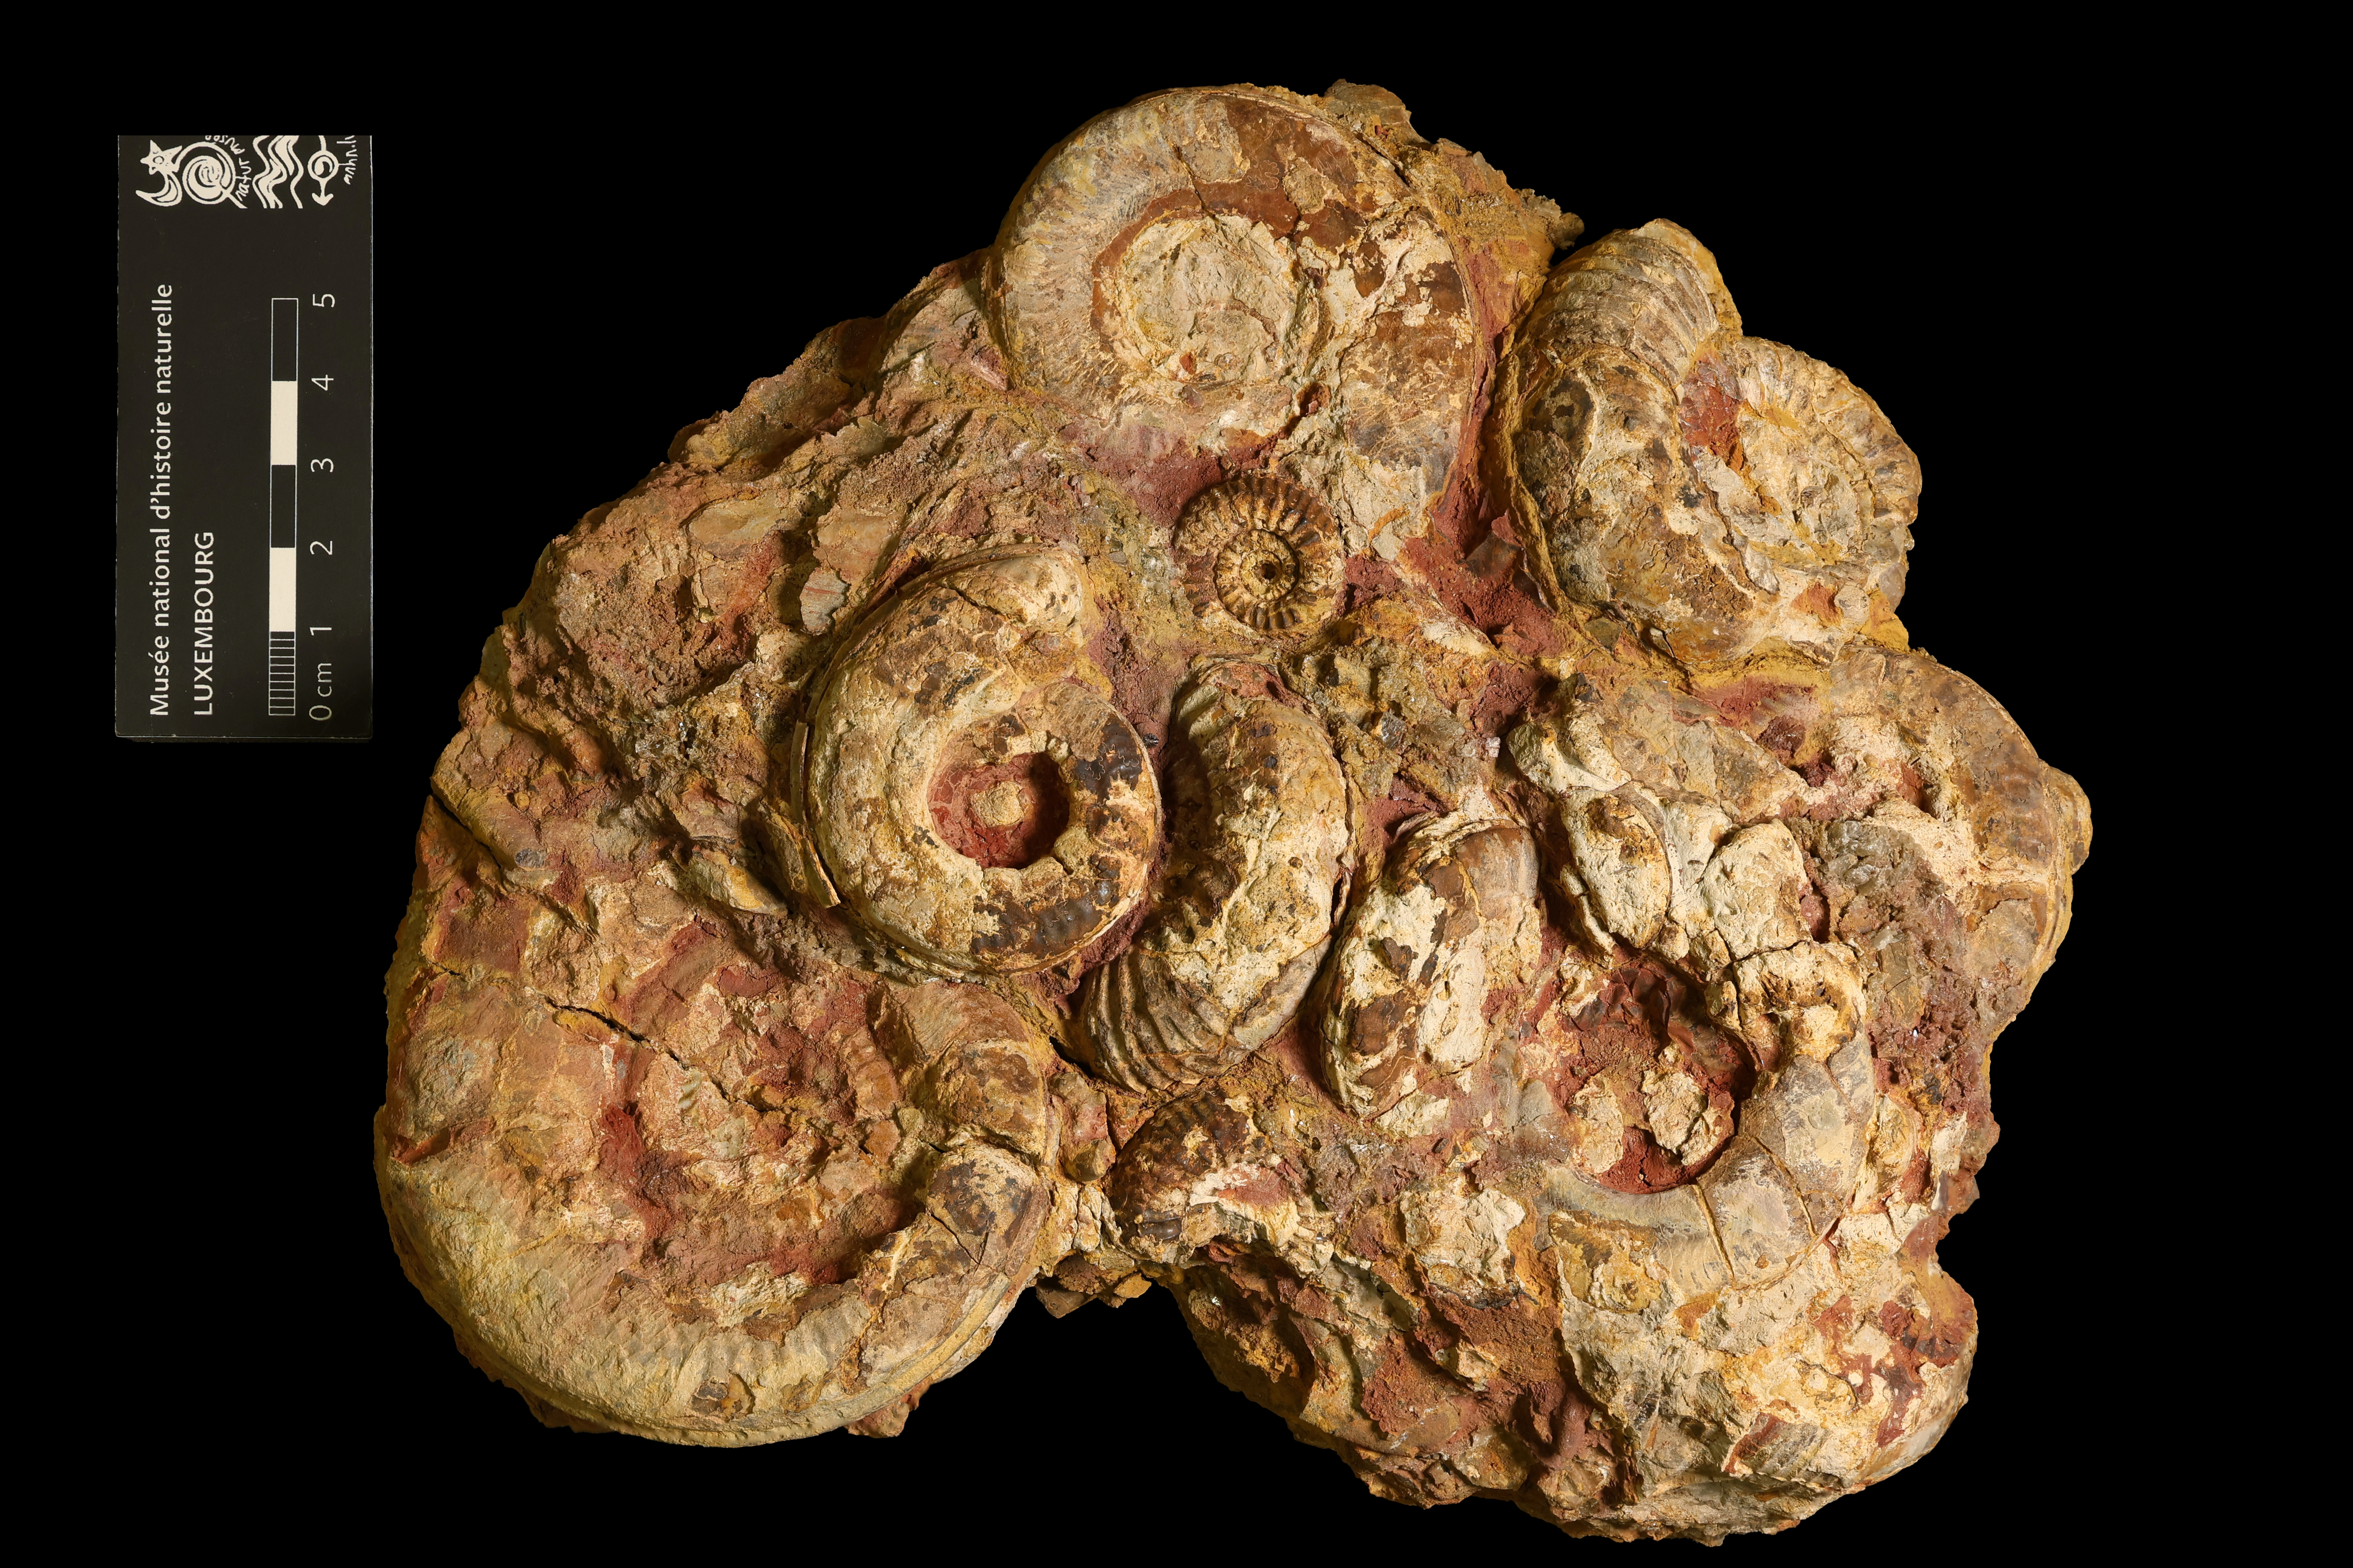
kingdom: Animalia
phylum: Mollusca
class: Cephalopoda
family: Hildoceratidae
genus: Hildoceras
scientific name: Hildoceras
